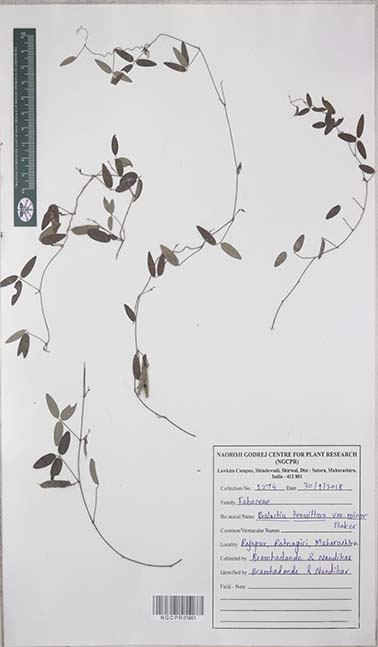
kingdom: Plantae
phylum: Tracheophyta
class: Magnoliopsida
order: Fabales
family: Fabaceae
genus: Galactia
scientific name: Galactia striata
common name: Florida hammock milkpea
